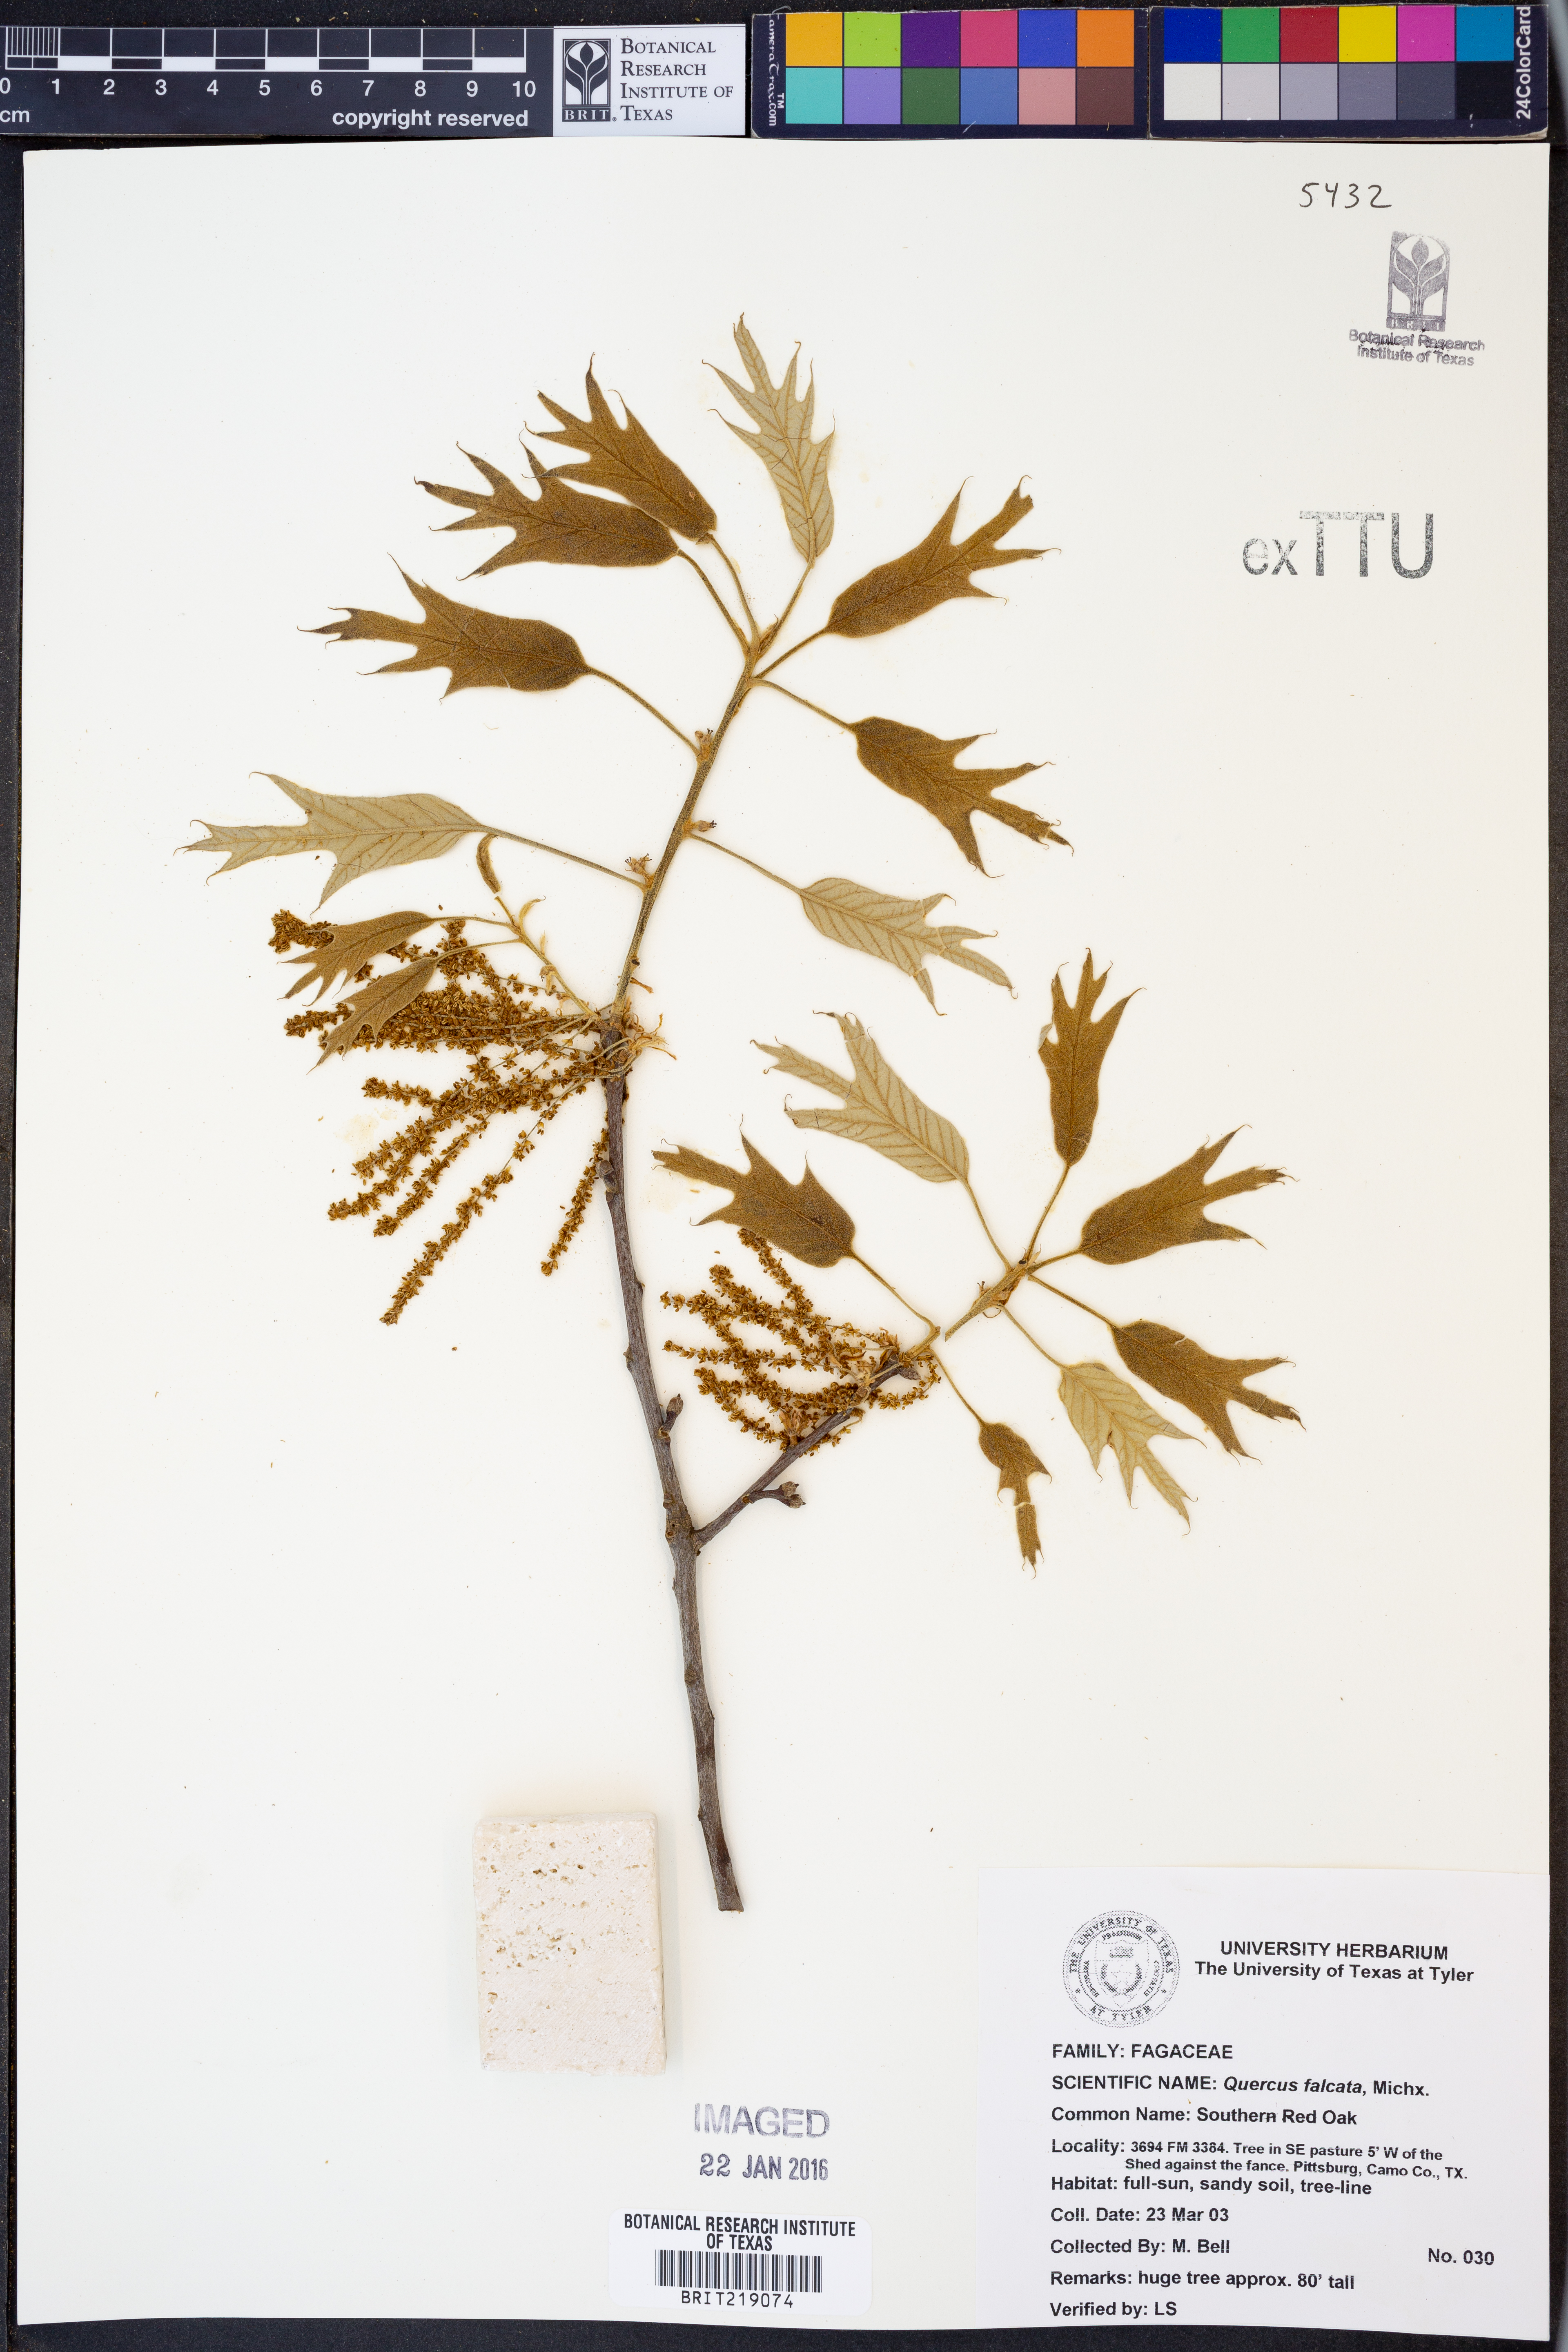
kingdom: Plantae
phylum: Tracheophyta
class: Magnoliopsida
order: Fagales
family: Fagaceae
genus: Quercus
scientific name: Quercus falcata
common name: Southern red oak
